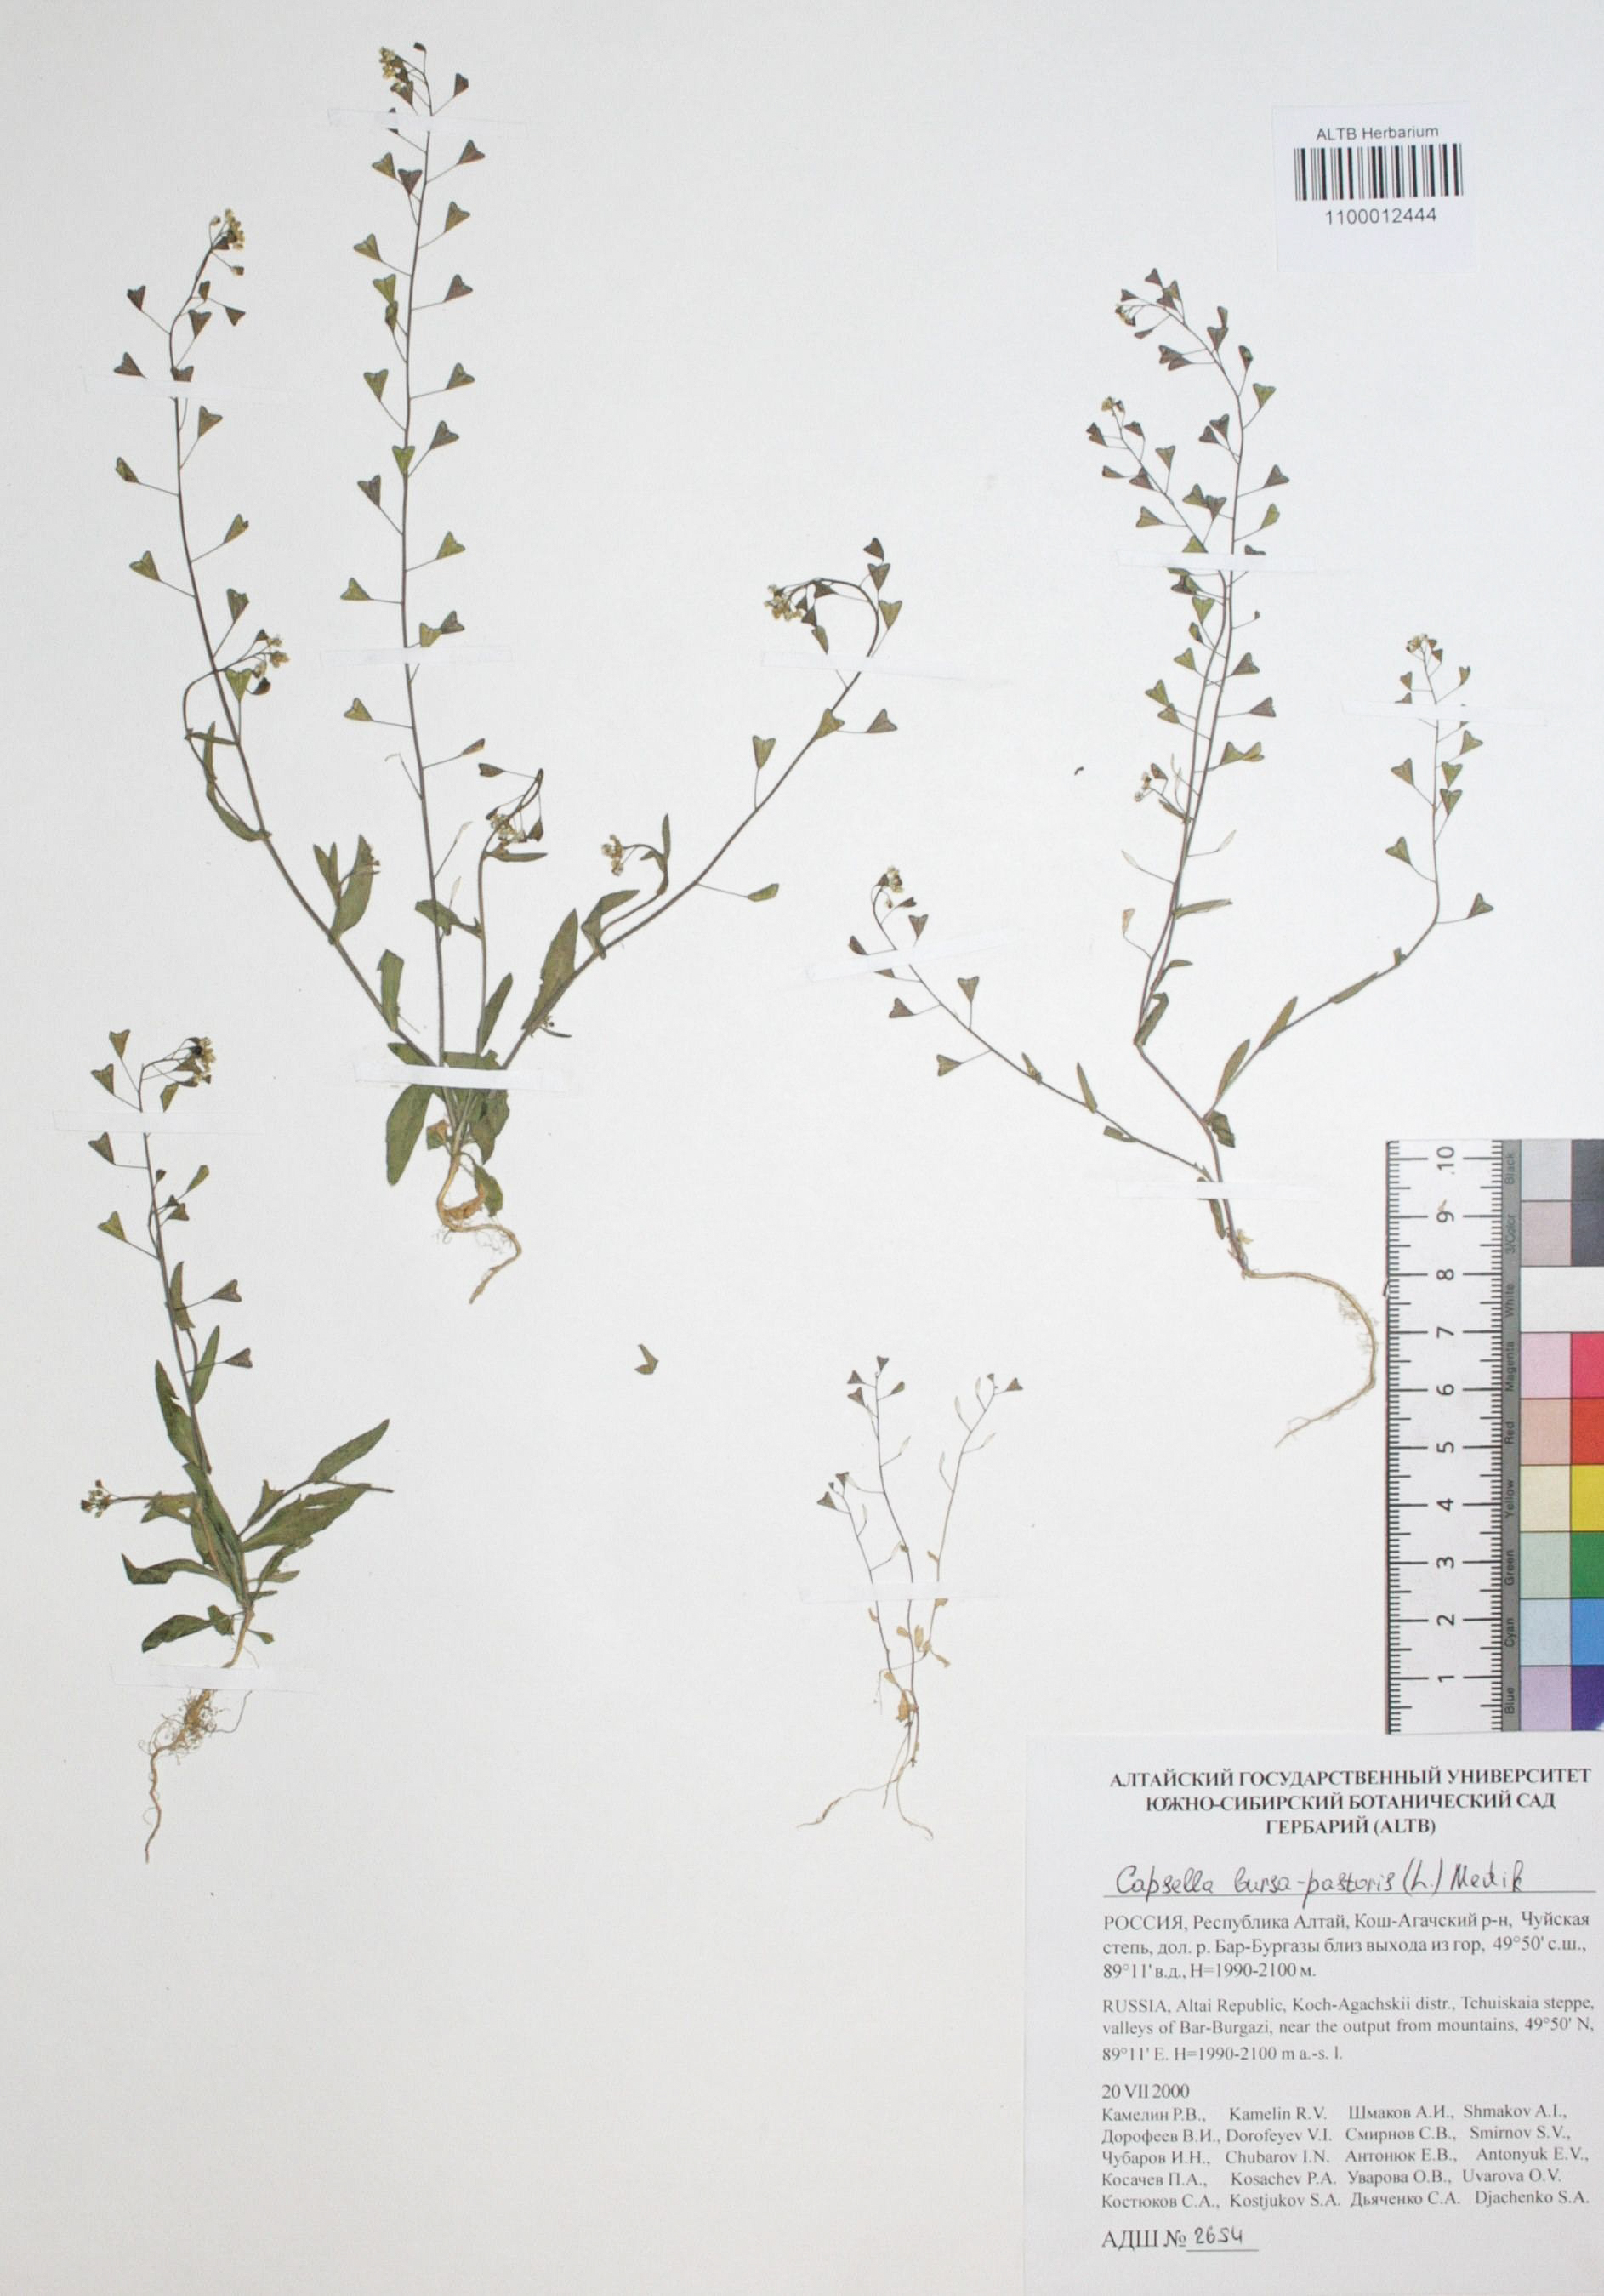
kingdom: Plantae
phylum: Tracheophyta
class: Magnoliopsida
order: Brassicales
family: Brassicaceae
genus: Capsella
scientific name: Capsella bursa-pastoris
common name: Shepherd's purse
